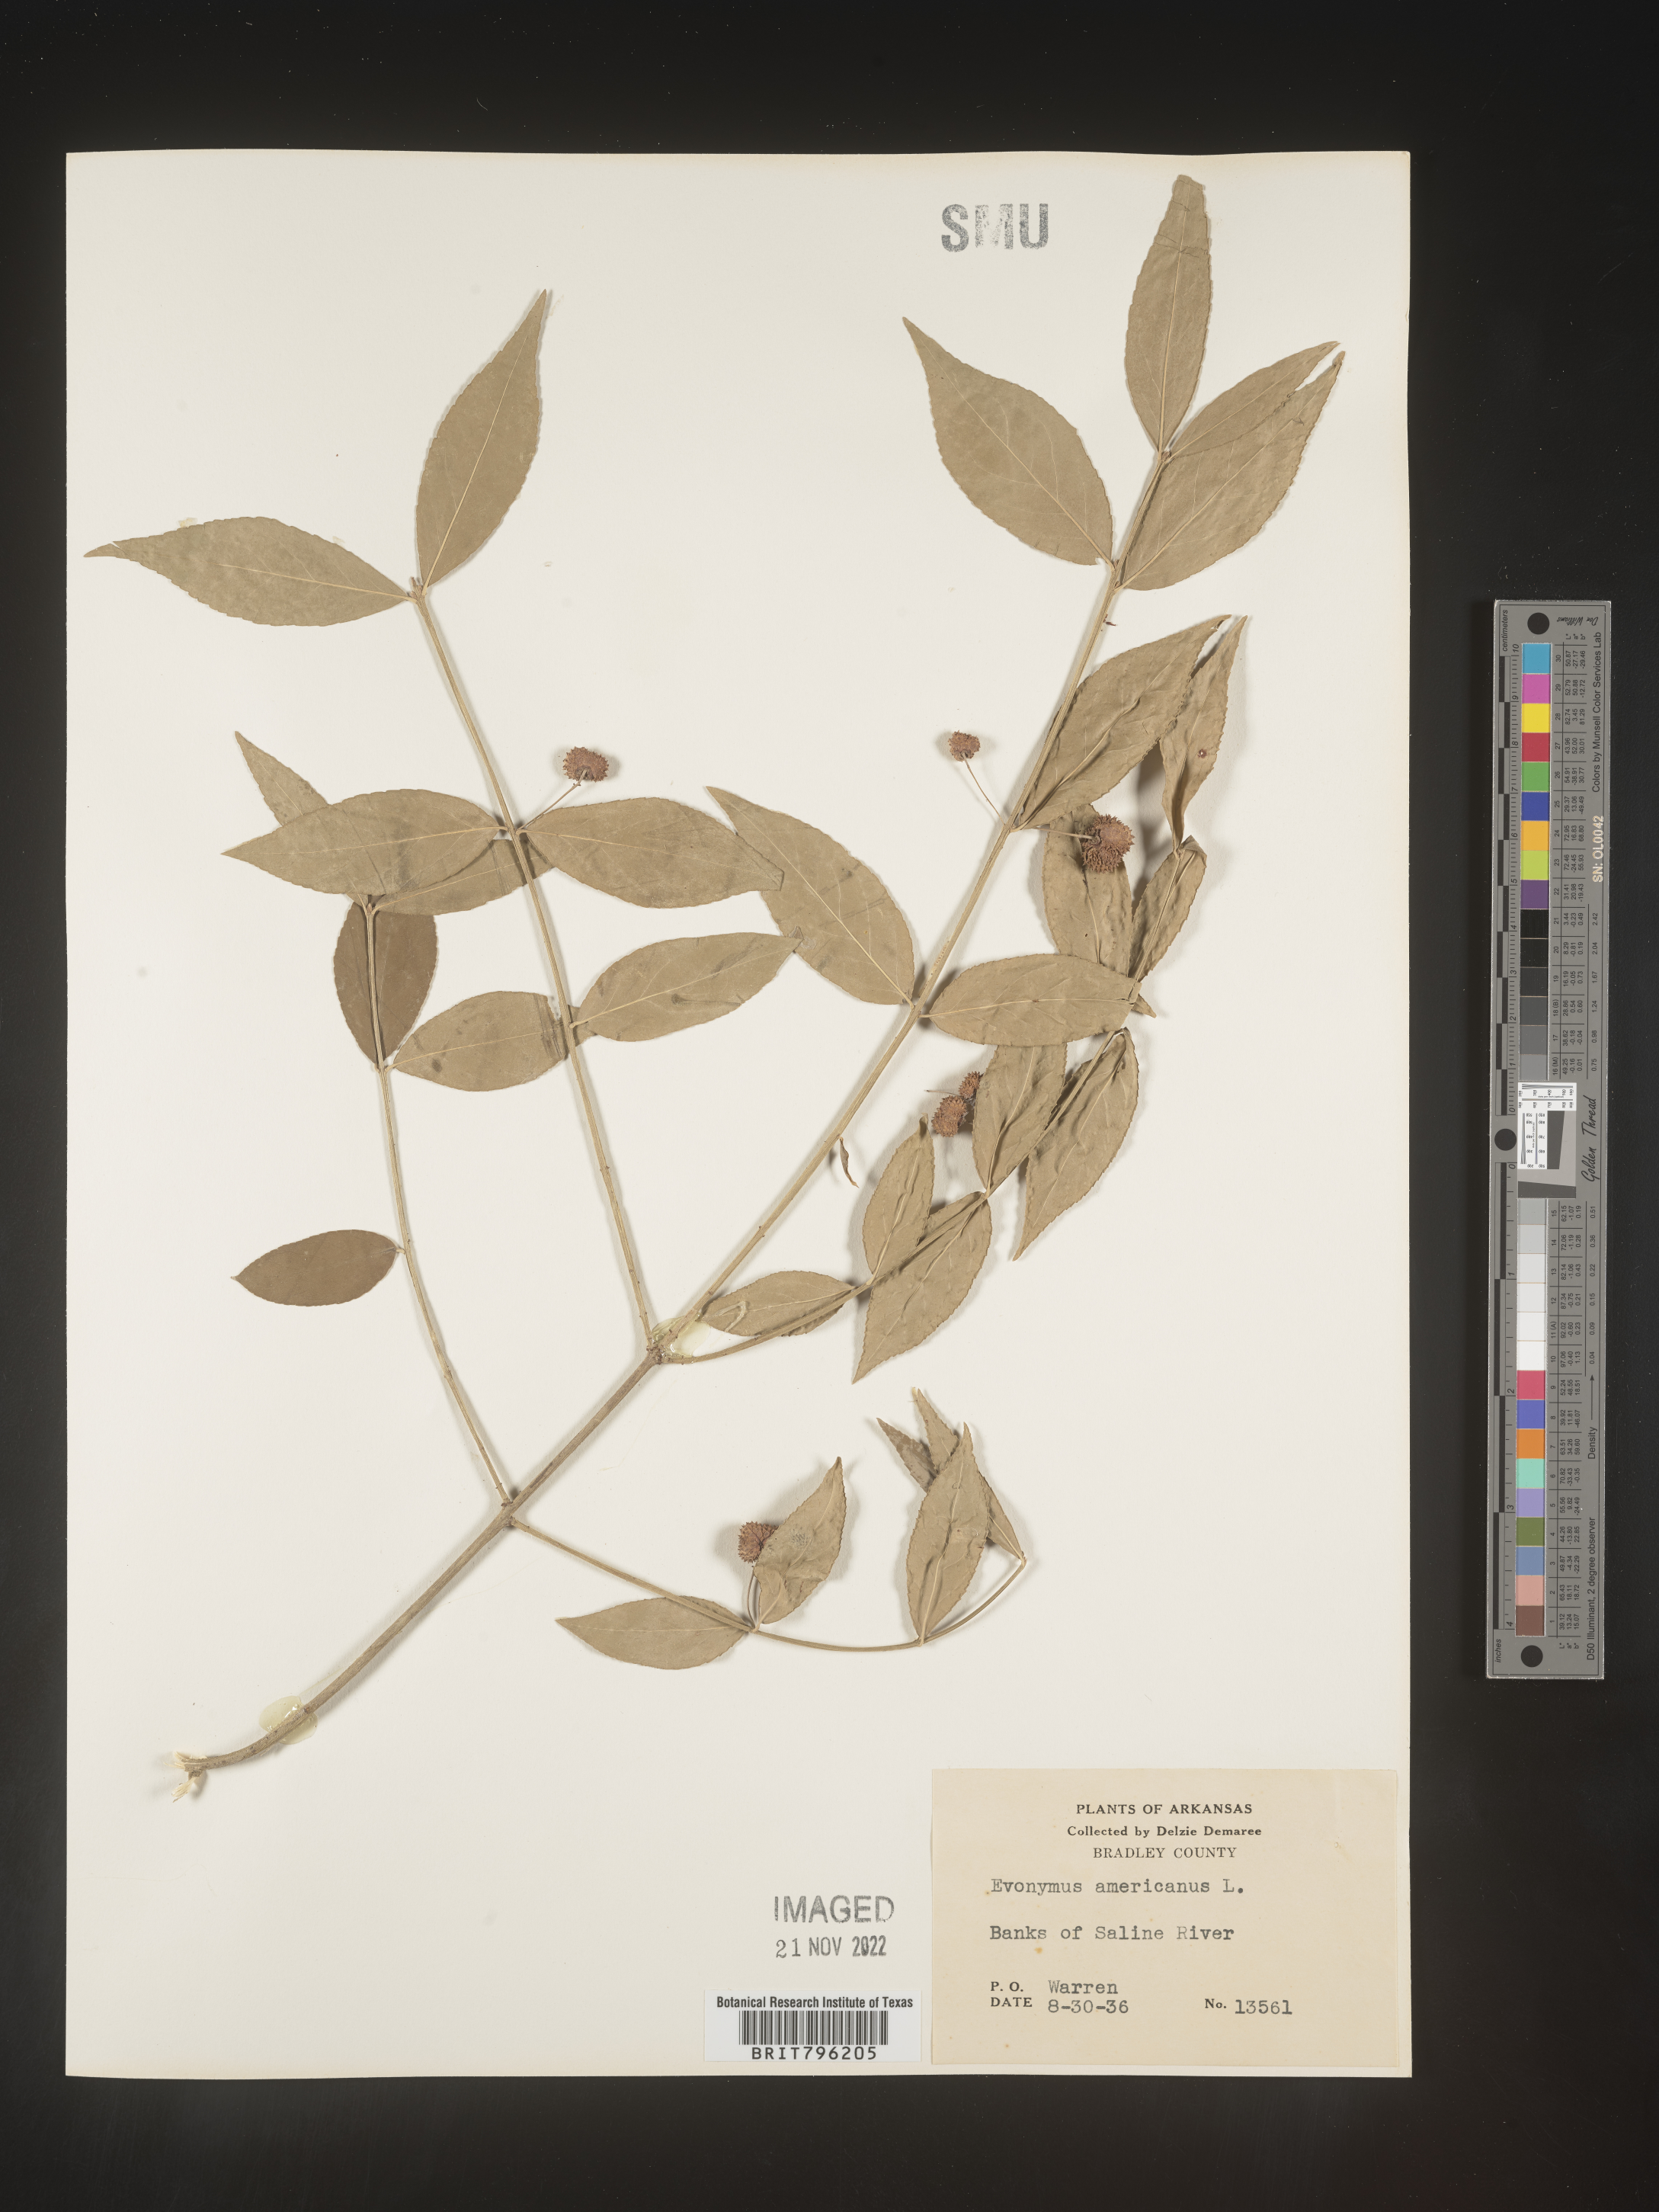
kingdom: Plantae
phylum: Tracheophyta
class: Magnoliopsida
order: Celastrales
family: Celastraceae
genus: Euonymus
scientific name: Euonymus americanus
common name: Bursting-heart
